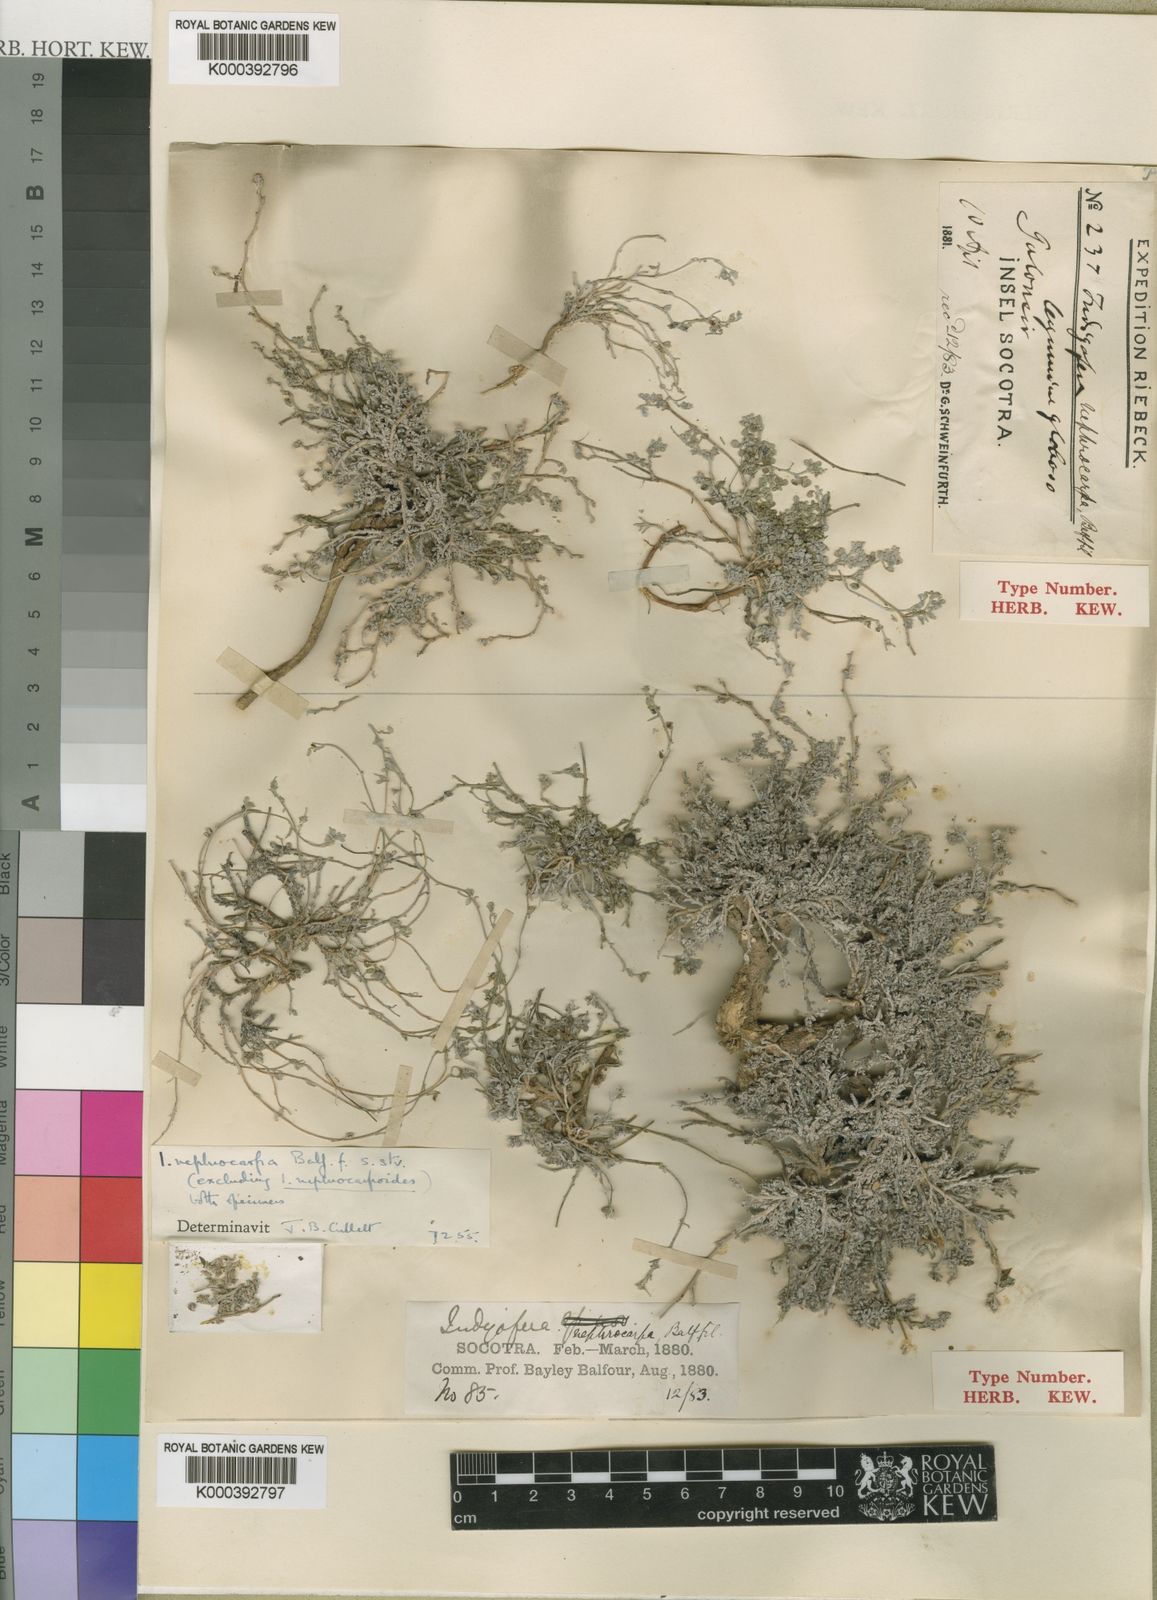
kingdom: Plantae
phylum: Tracheophyta
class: Magnoliopsida
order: Fabales
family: Fabaceae
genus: Indigofera
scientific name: Indigofera nephrocarpa
